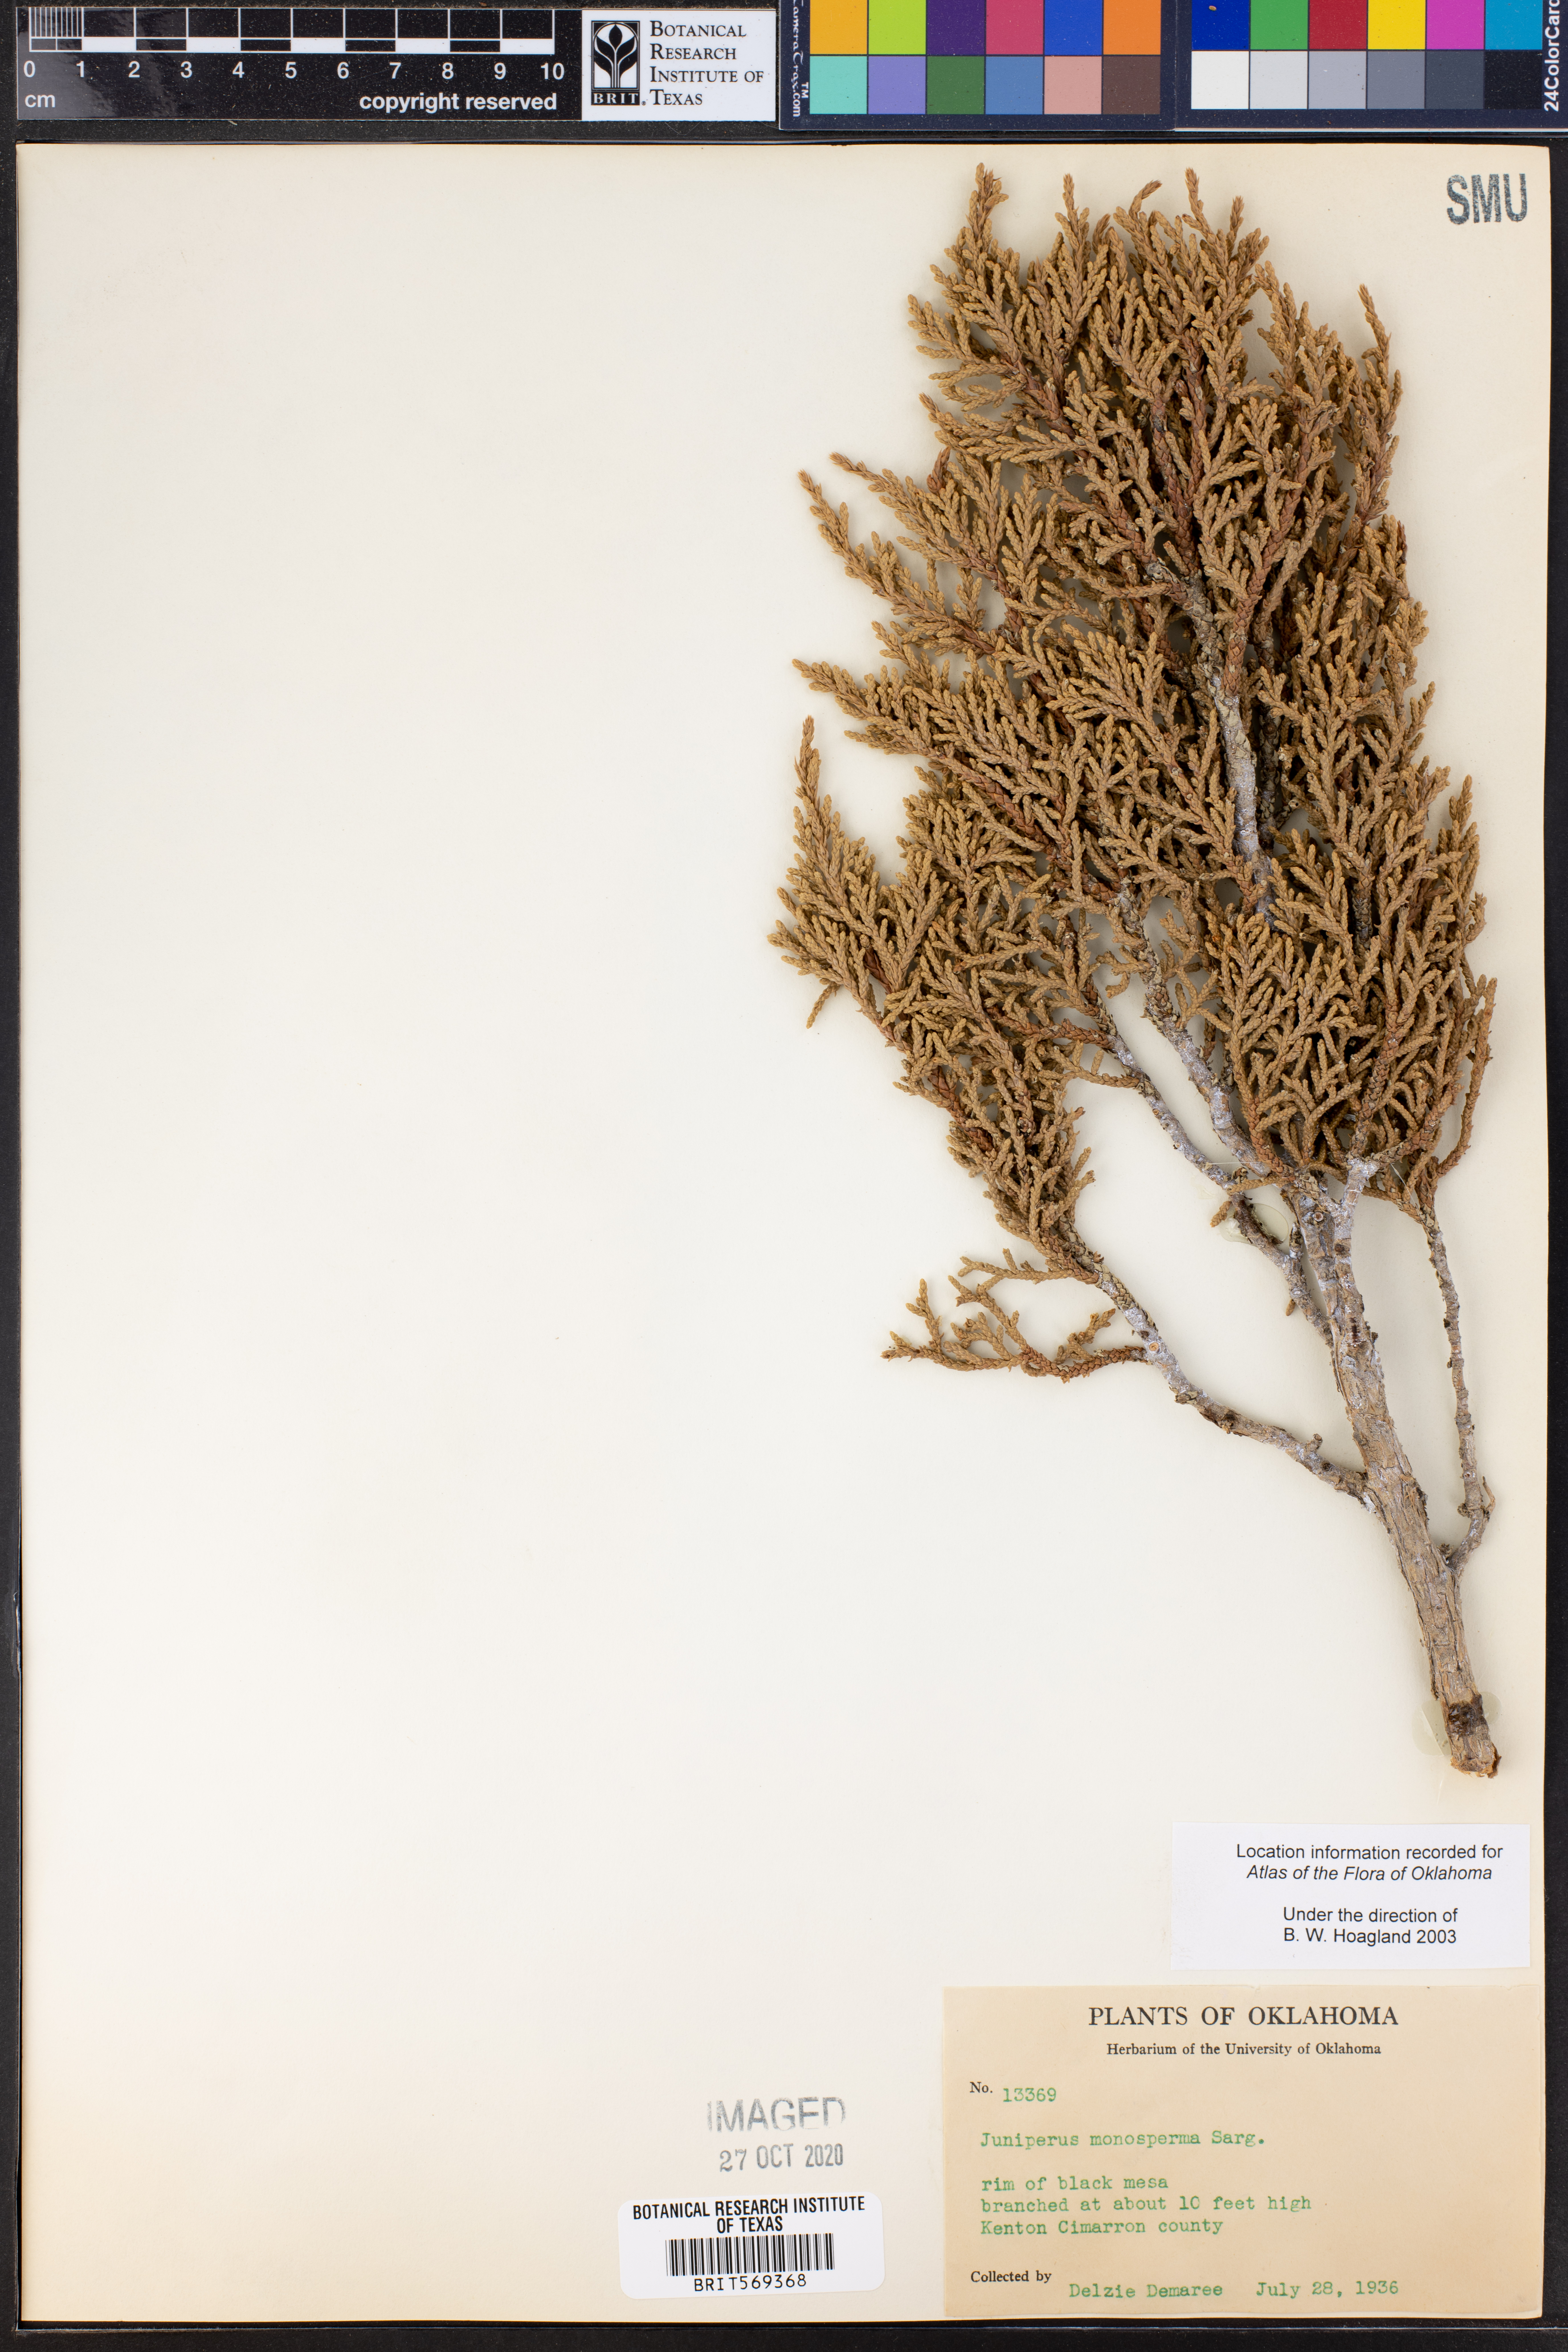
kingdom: Plantae
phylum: Tracheophyta
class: Pinopsida
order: Pinales
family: Cupressaceae
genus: Juniperus
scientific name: Juniperus monosperma
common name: One-seed juniper
